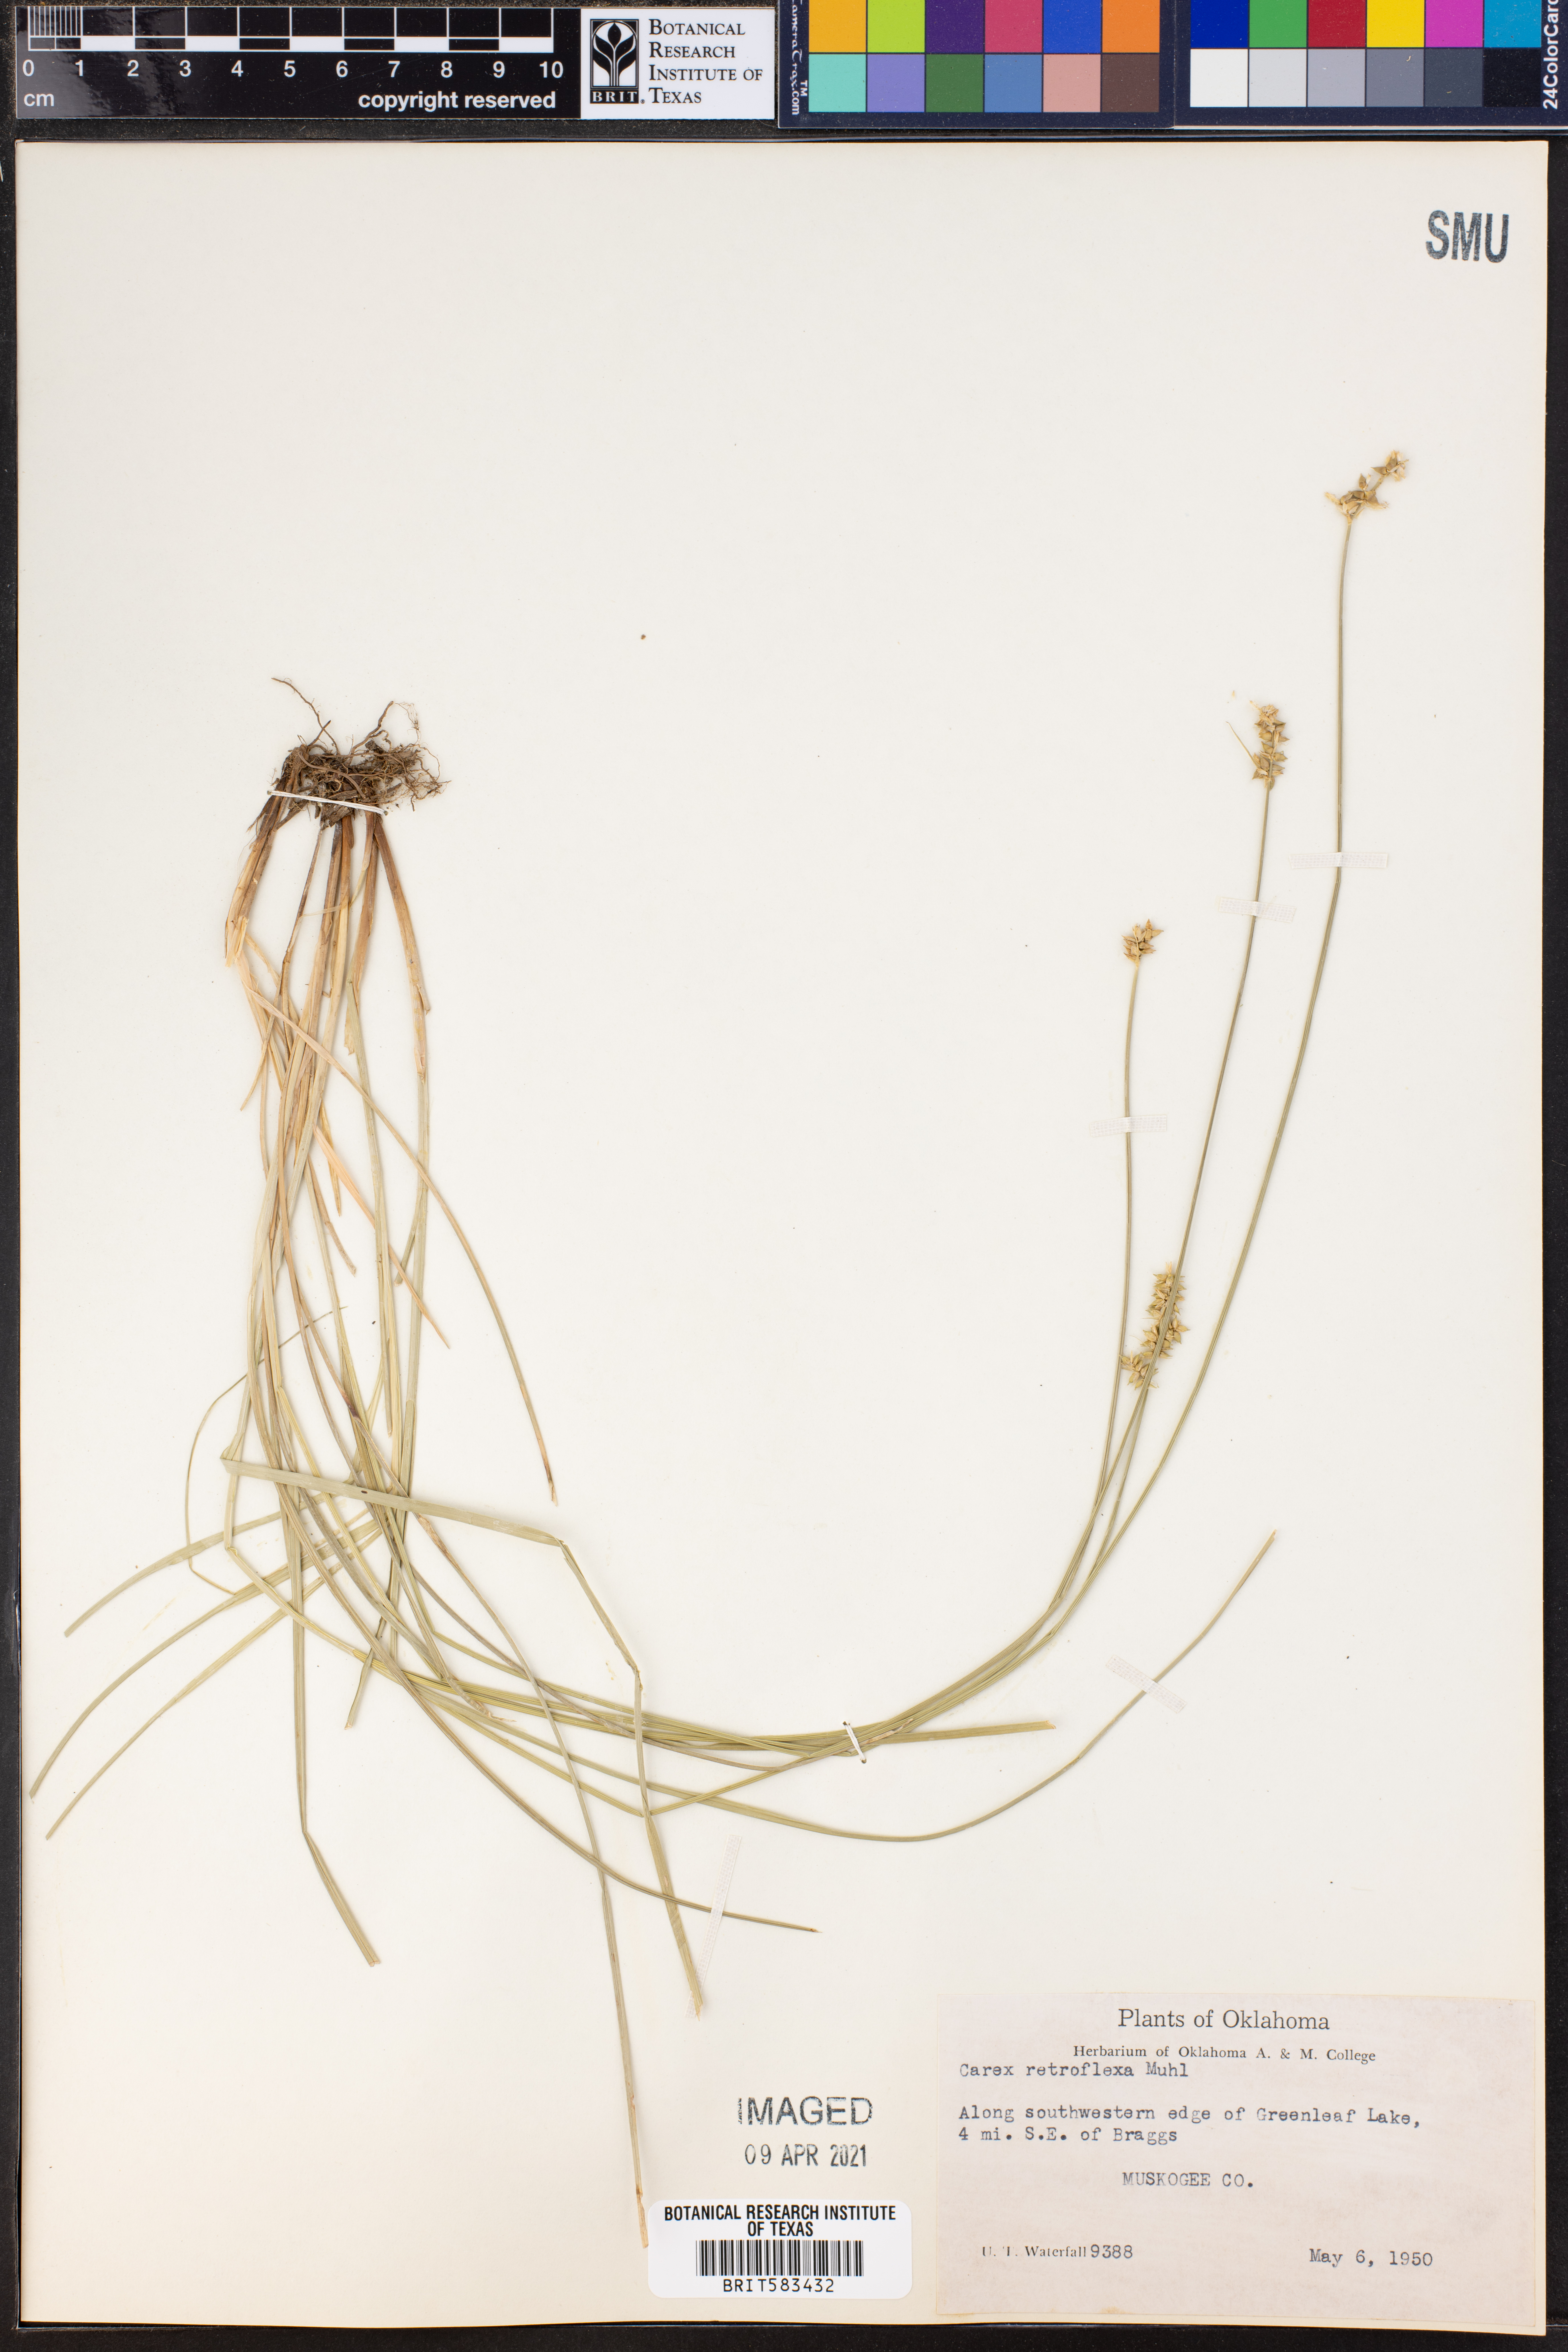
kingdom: Plantae
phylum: Tracheophyta
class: Liliopsida
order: Poales
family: Cyperaceae
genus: Carex
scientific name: Carex retroflexa
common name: Reflexed sedge
